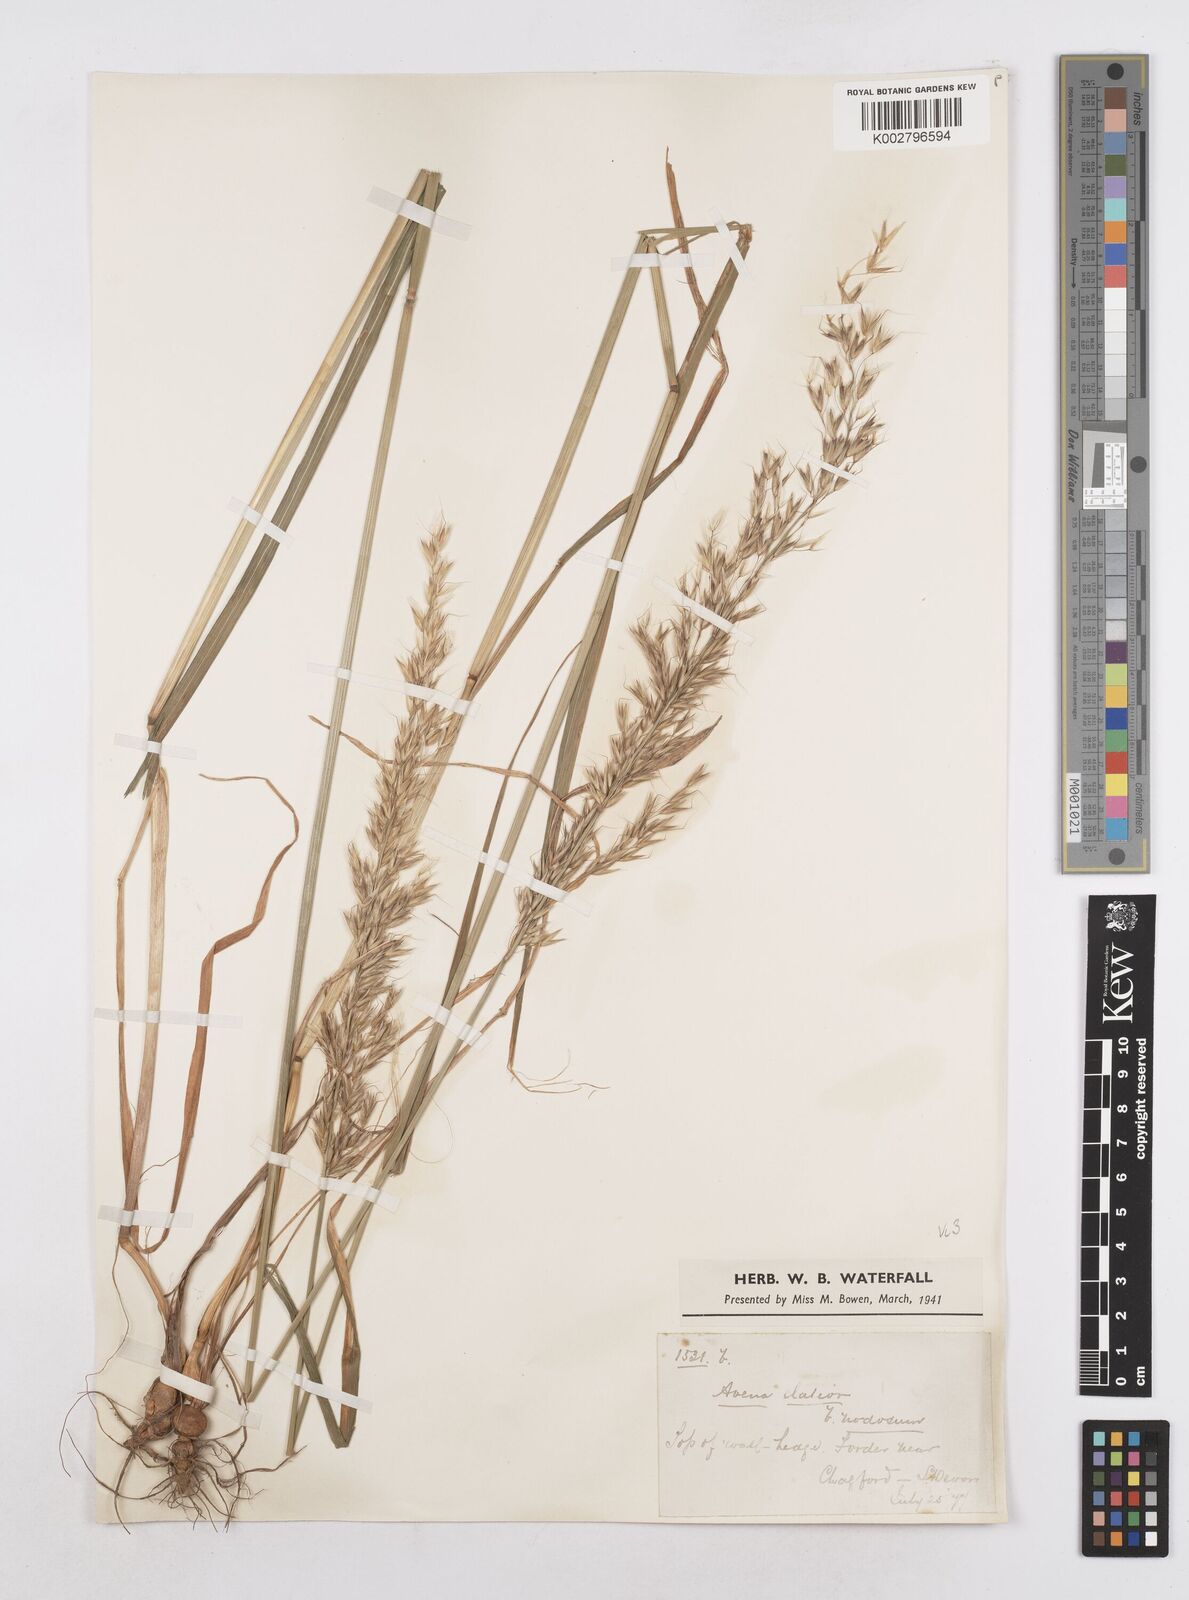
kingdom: Plantae
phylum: Tracheophyta
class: Liliopsida
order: Poales
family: Poaceae
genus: Arrhenatherum
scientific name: Arrhenatherum elatius
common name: Tall oatgrass
